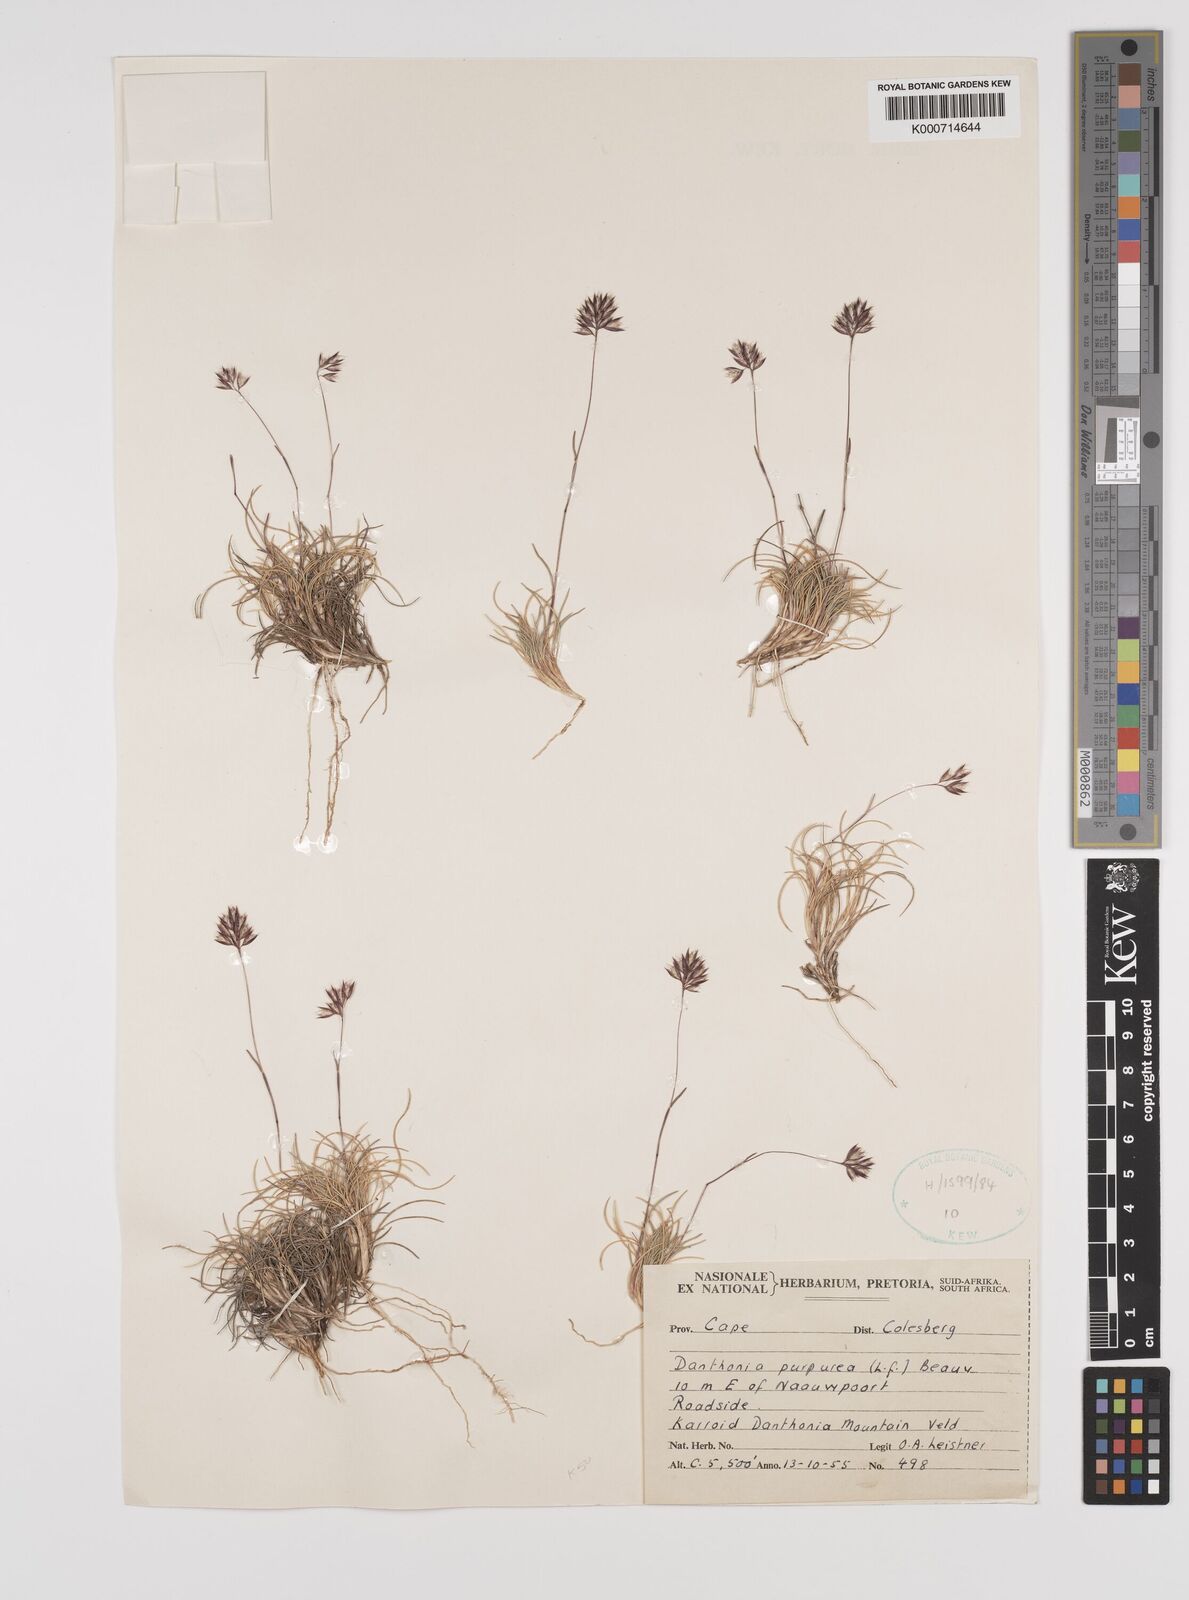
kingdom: Plantae
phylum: Tracheophyta
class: Liliopsida
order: Poales
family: Poaceae
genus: Rytidosperma
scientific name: Rytidosperma
